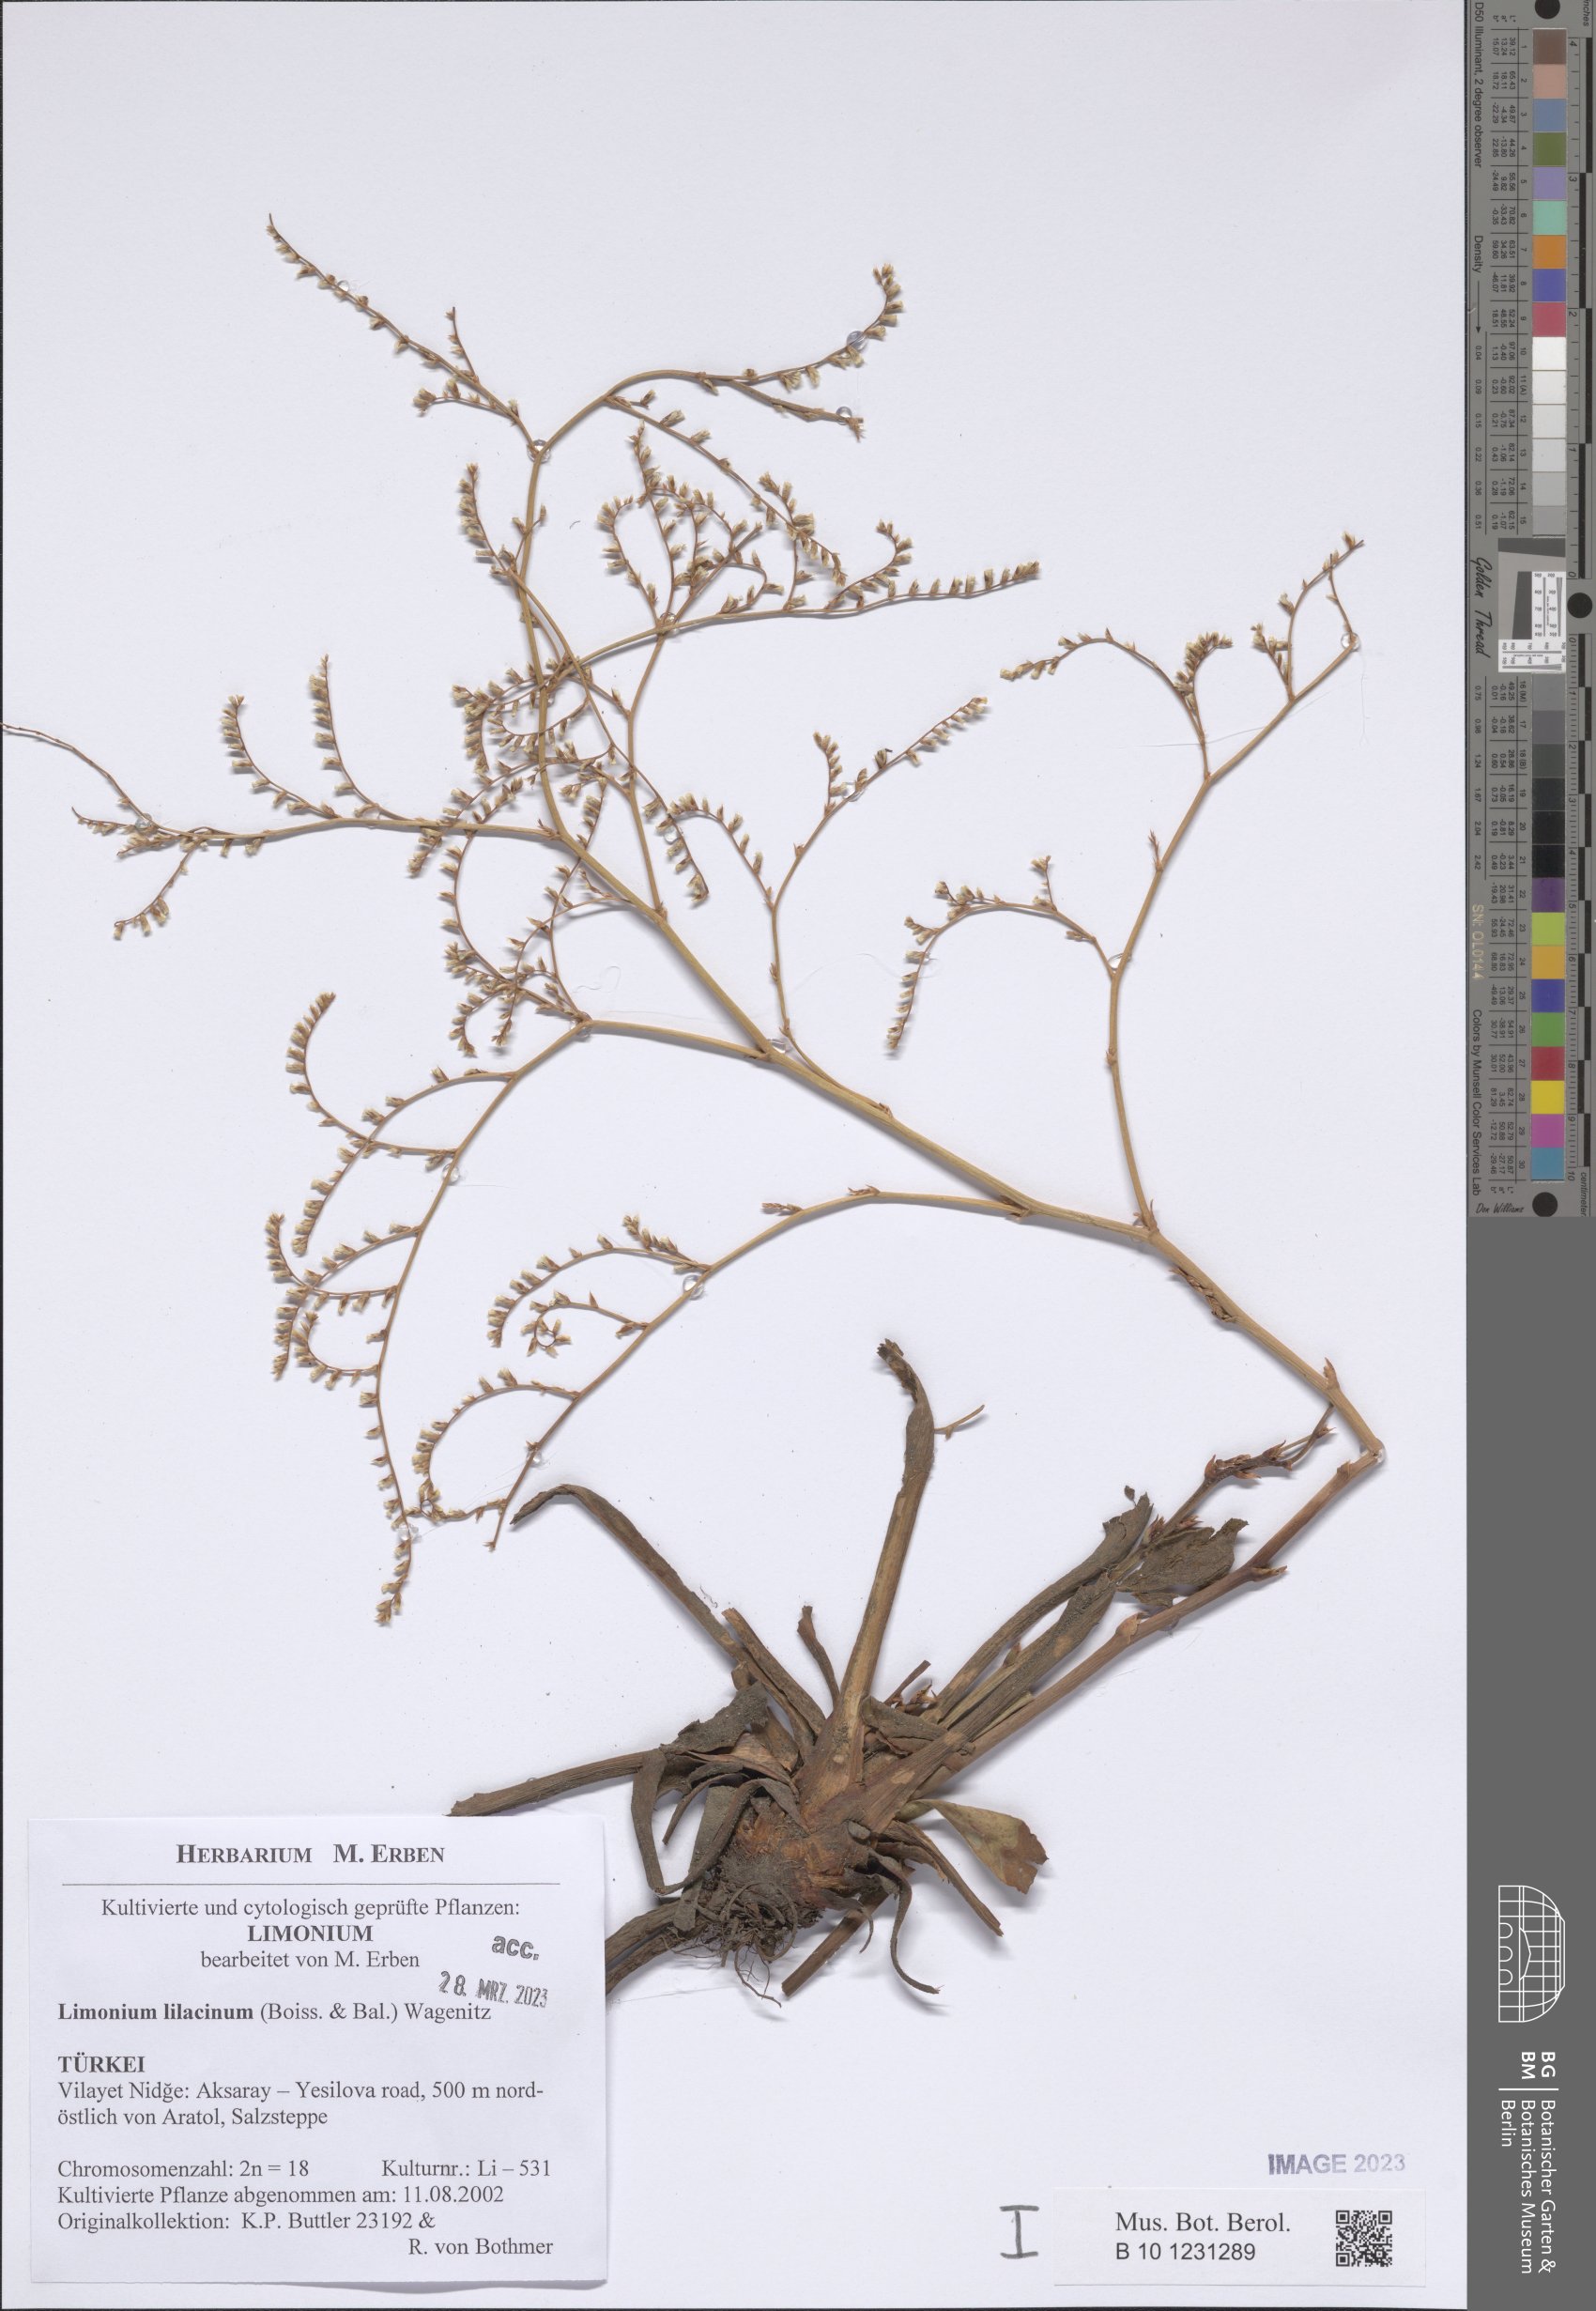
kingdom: Plantae
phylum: Tracheophyta
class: Magnoliopsida
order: Caryophyllales
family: Plumbaginaceae
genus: Limonium
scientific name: Limonium lilacinum
